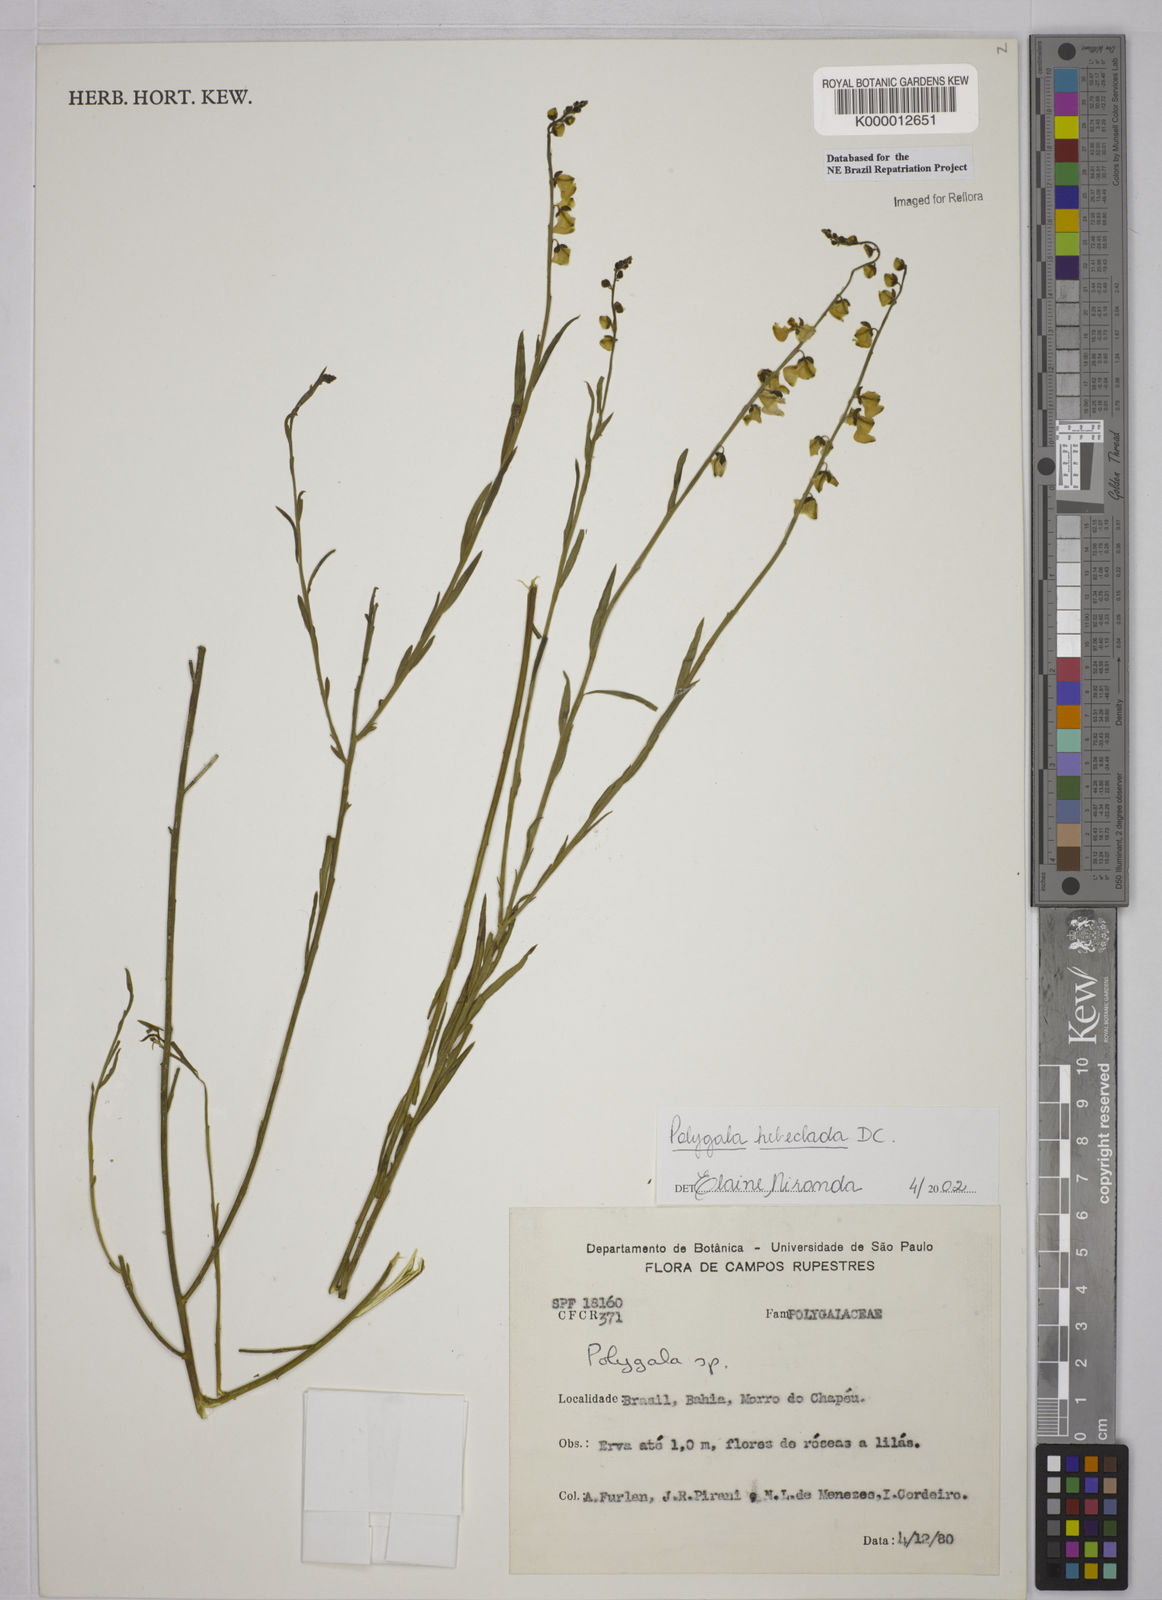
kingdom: Plantae
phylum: Tracheophyta
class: Magnoliopsida
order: Fabales
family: Polygalaceae
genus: Asemeia
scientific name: Asemeia hebeclada
